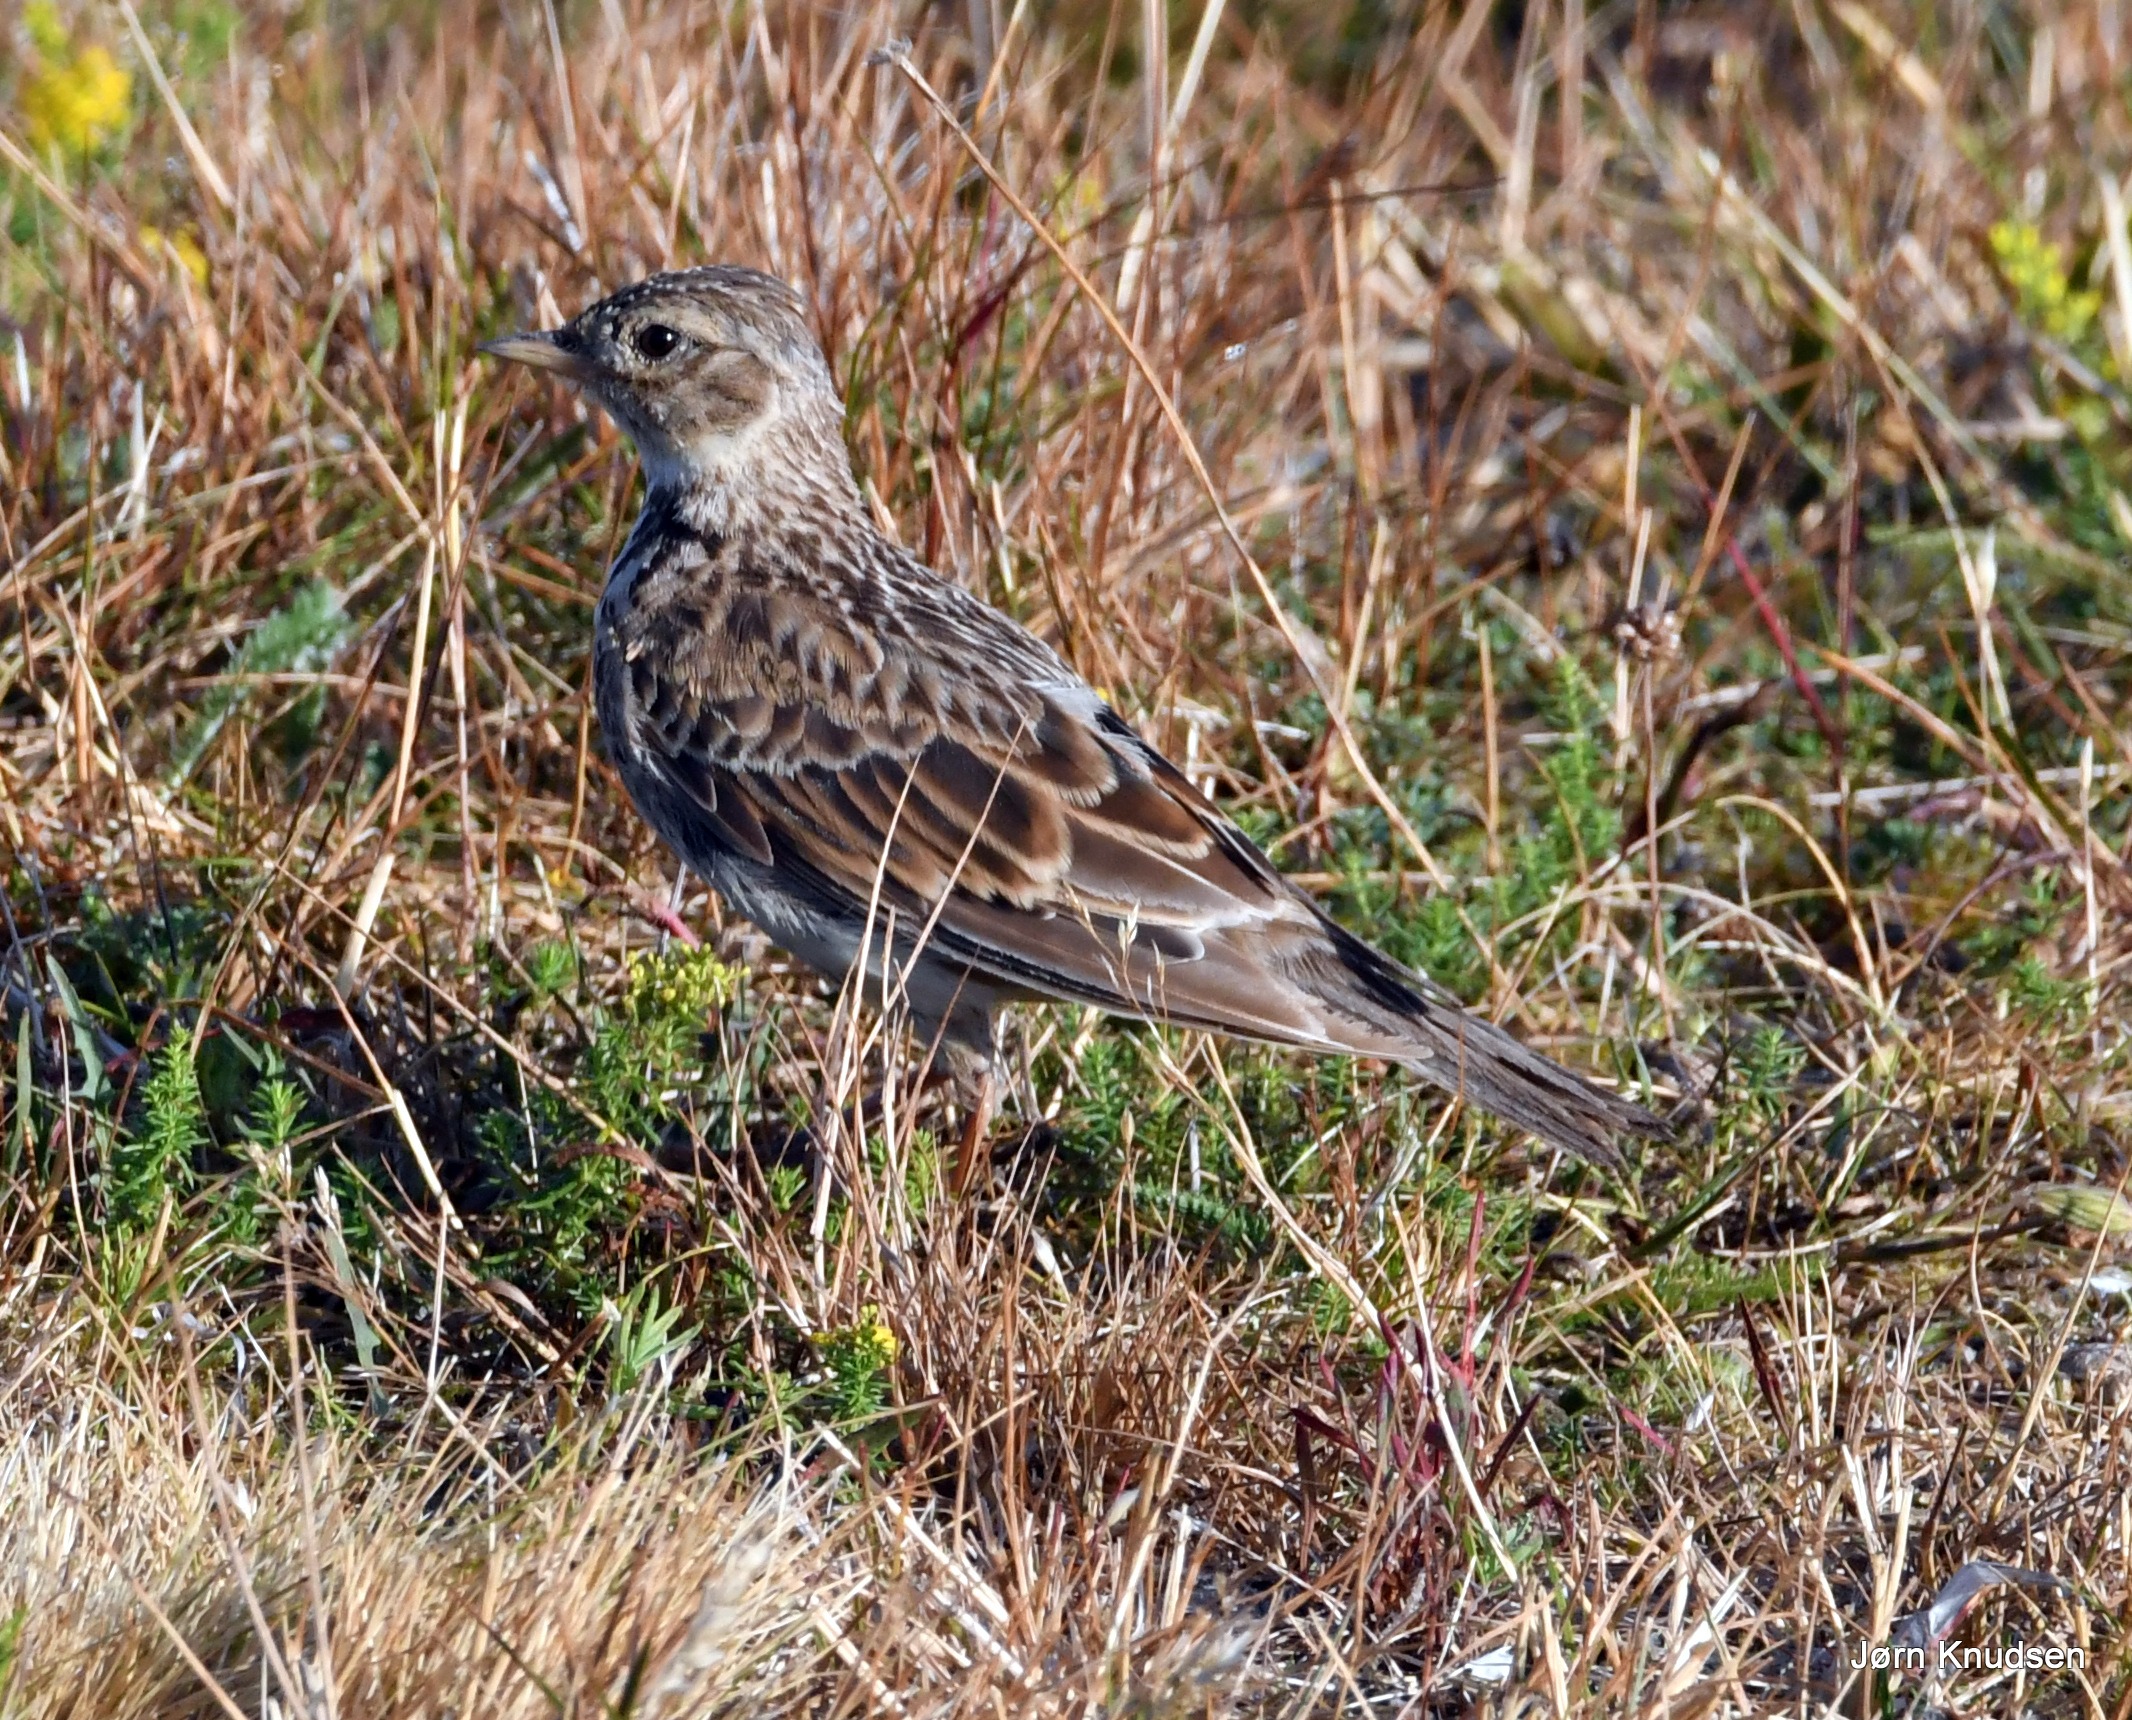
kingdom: Animalia
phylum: Chordata
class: Aves
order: Passeriformes
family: Alaudidae
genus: Alauda
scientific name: Alauda arvensis
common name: Sanglærke
